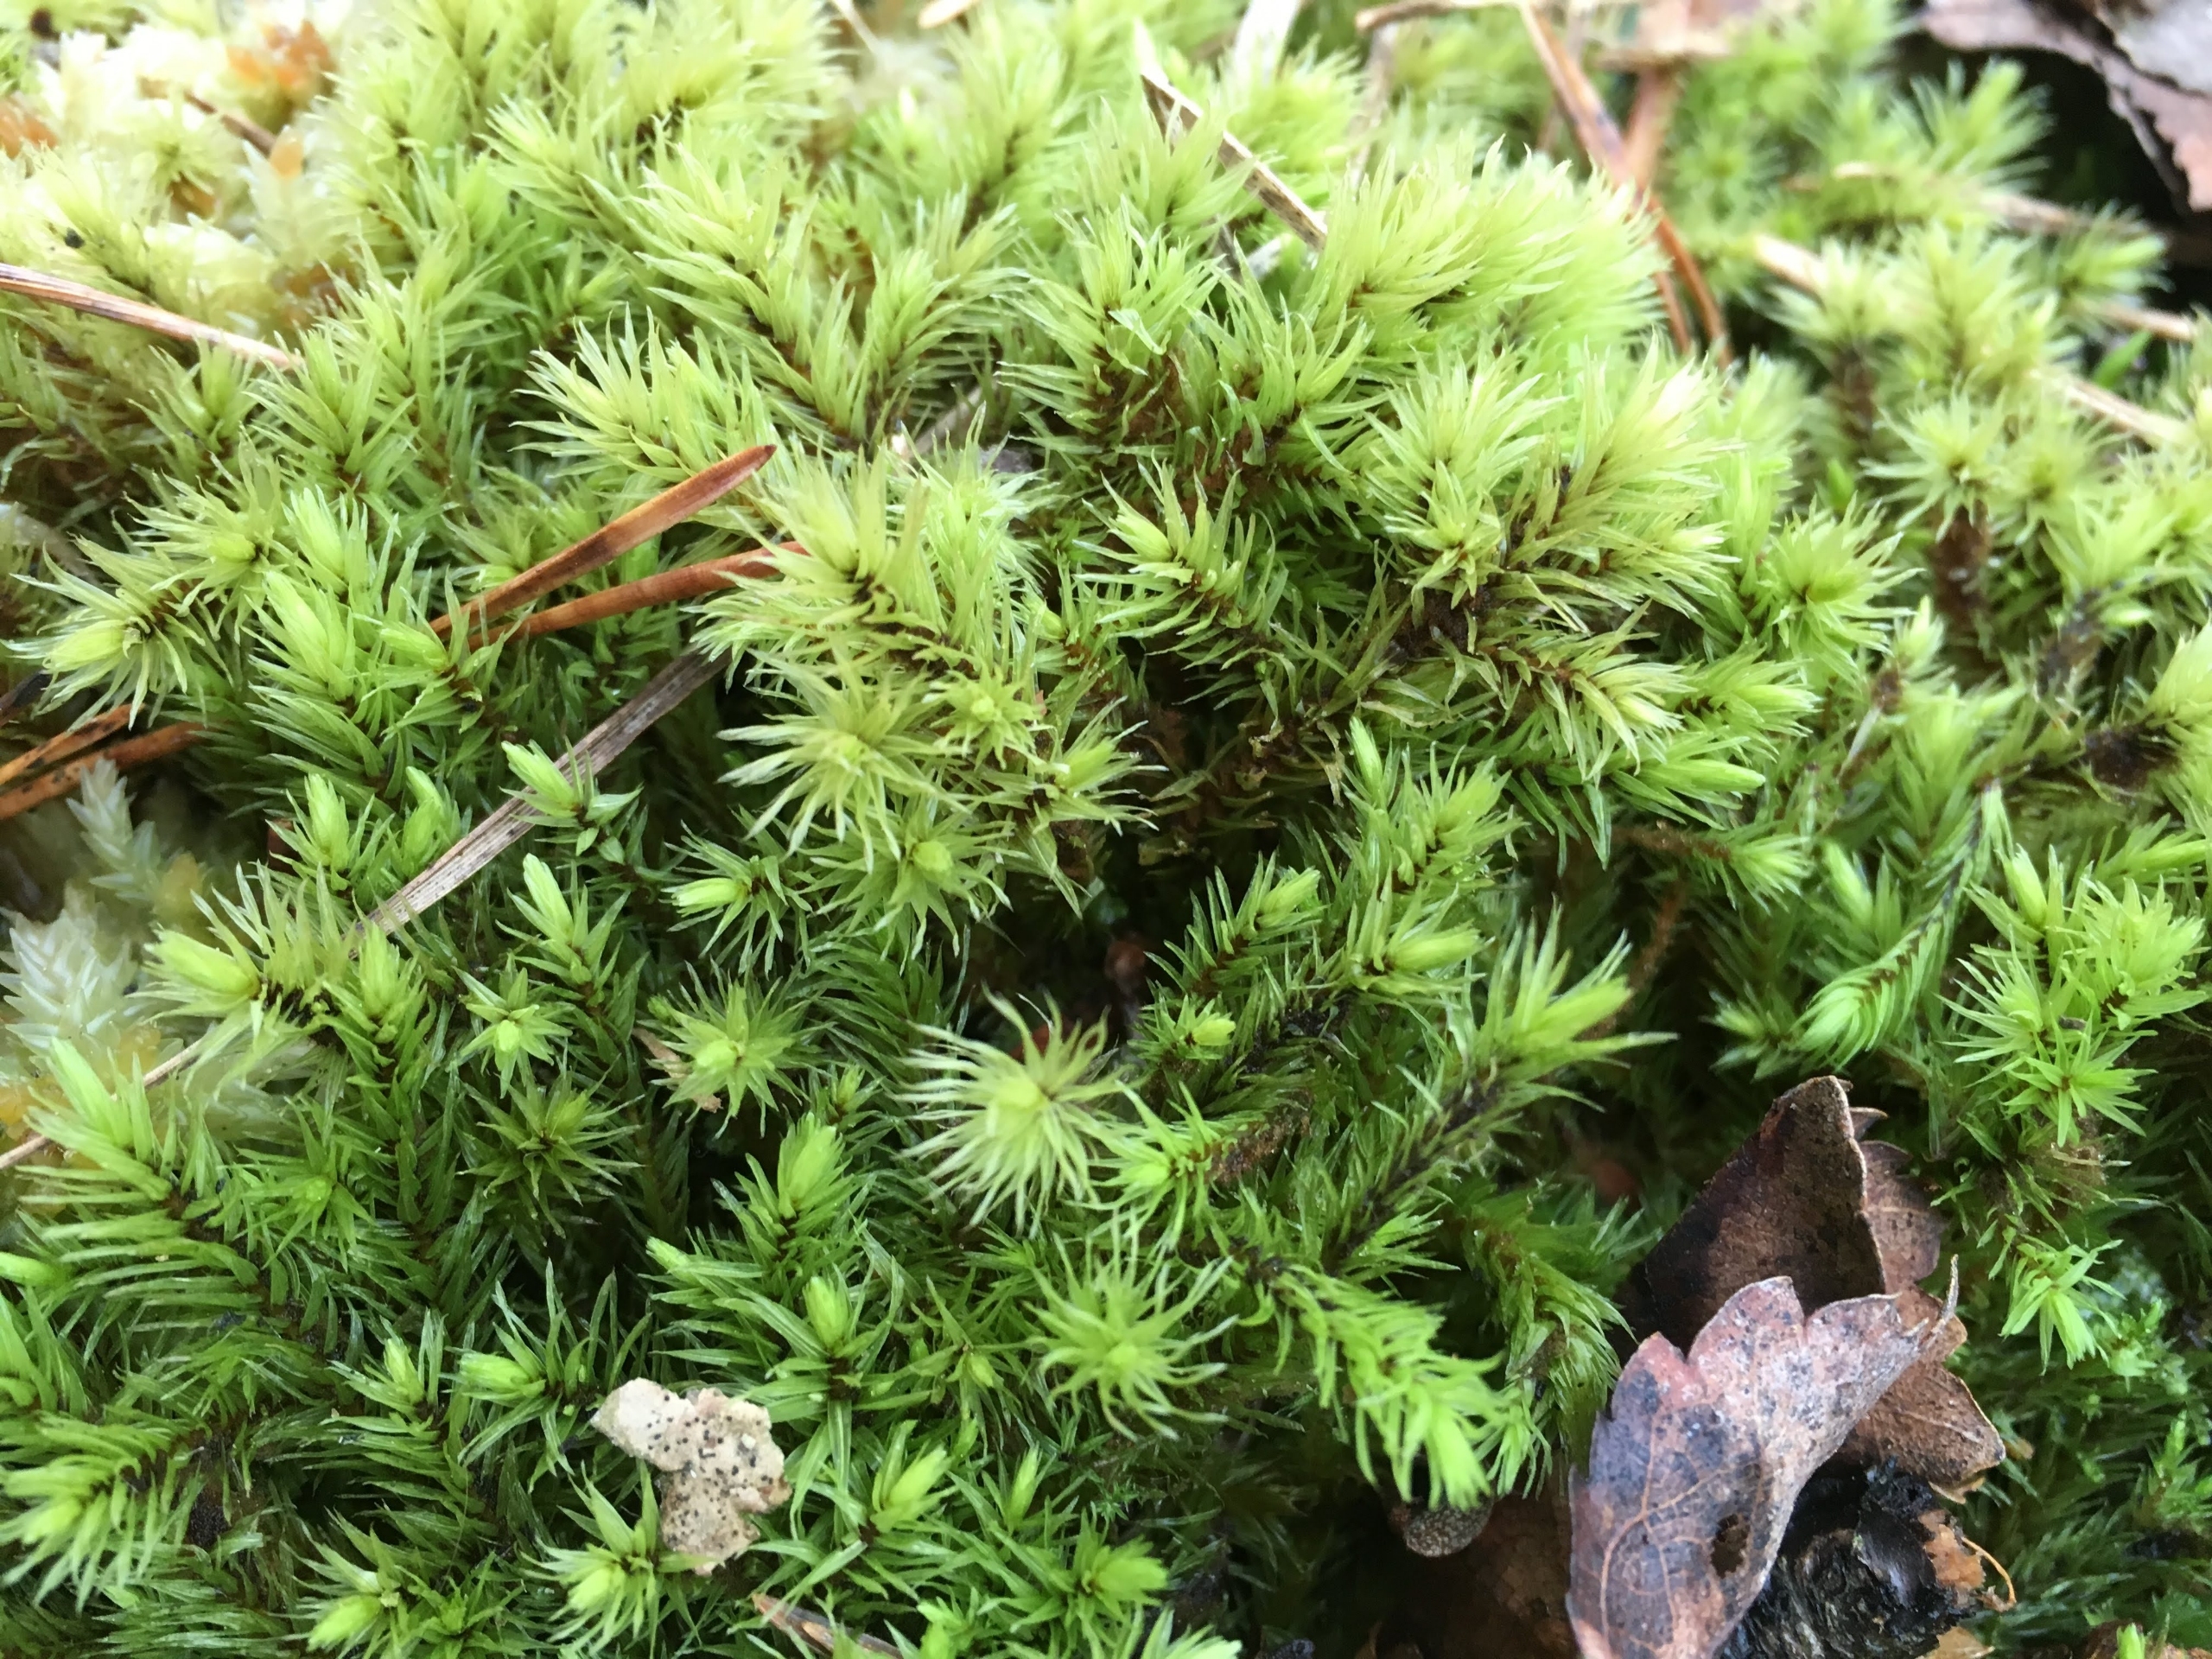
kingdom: Plantae
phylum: Bryophyta
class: Bryopsida
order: Aulacomniales
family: Aulacomniaceae
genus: Aulacomnium
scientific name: Aulacomnium palustre
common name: Almindelig filtmos
